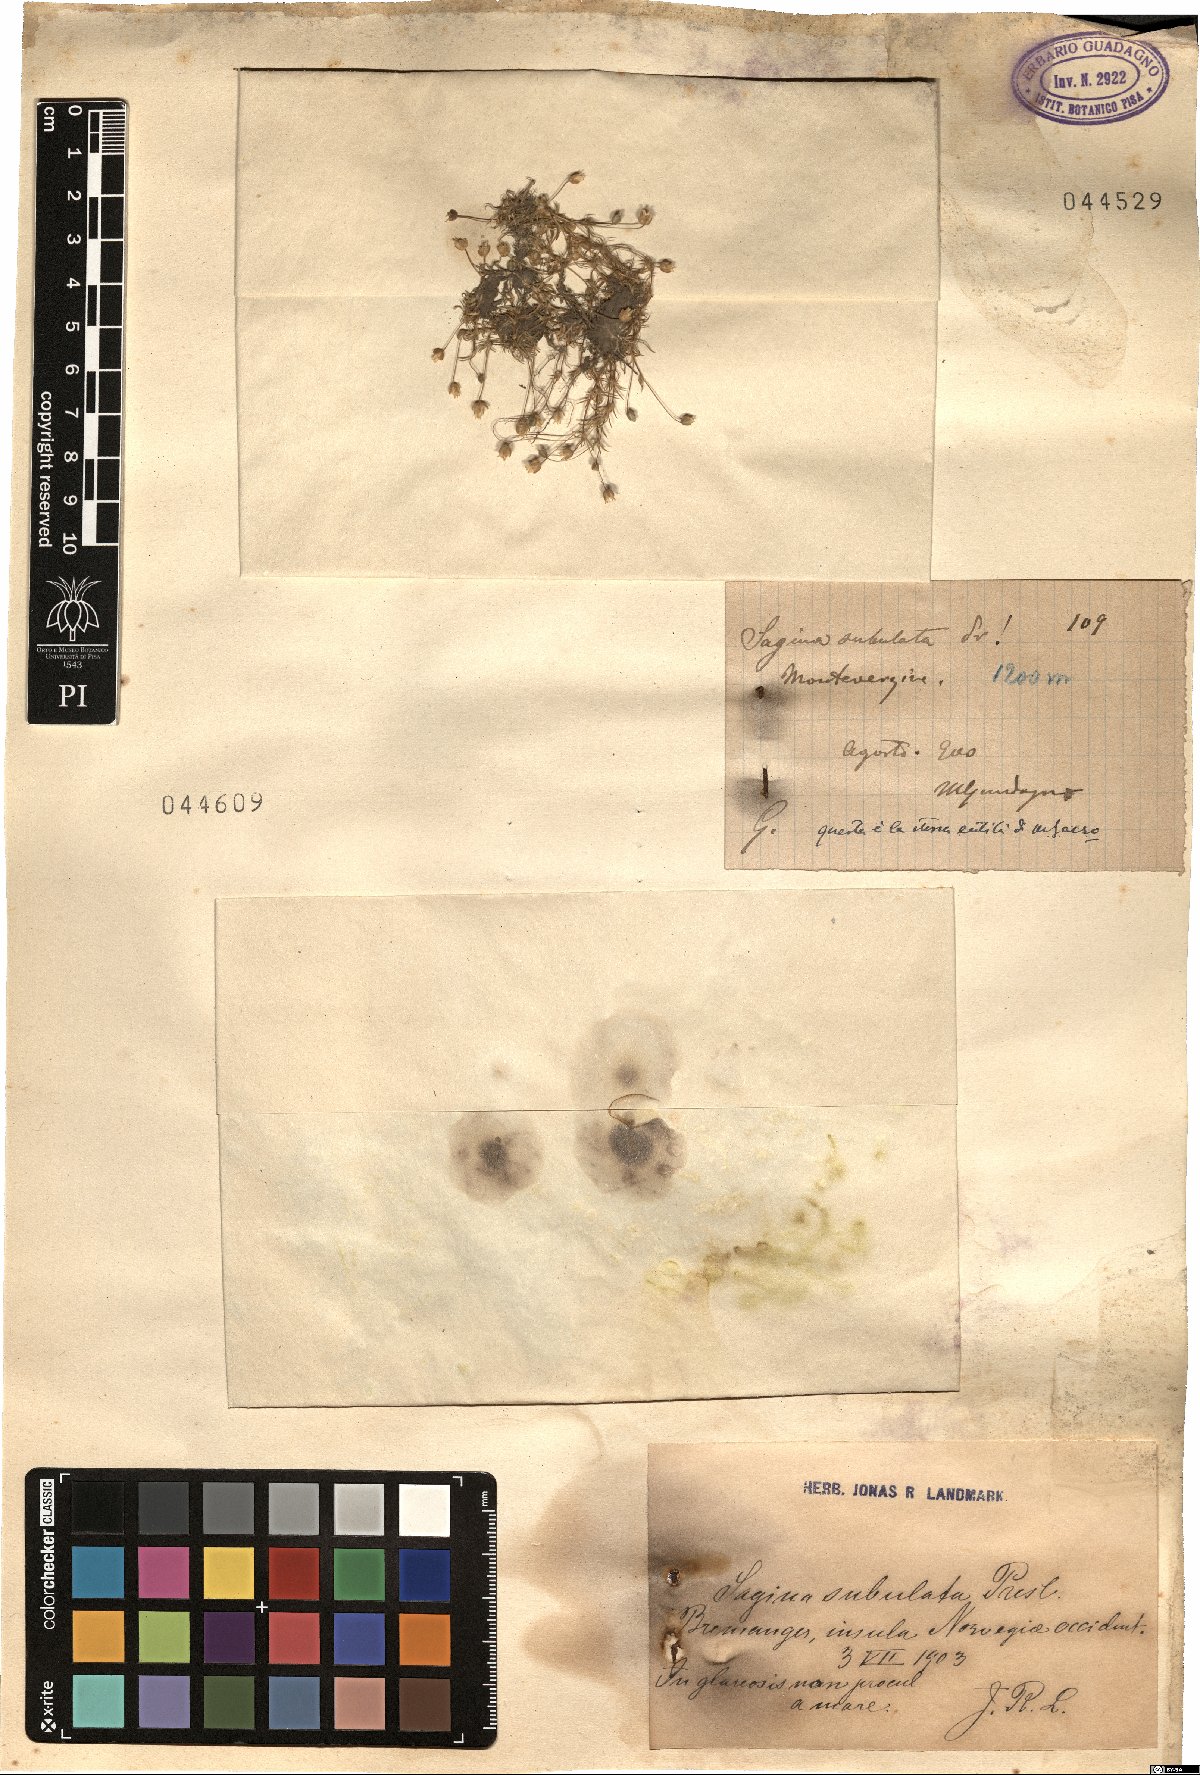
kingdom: Plantae
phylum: Tracheophyta
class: Magnoliopsida
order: Caryophyllales
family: Caryophyllaceae
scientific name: Caryophyllaceae
